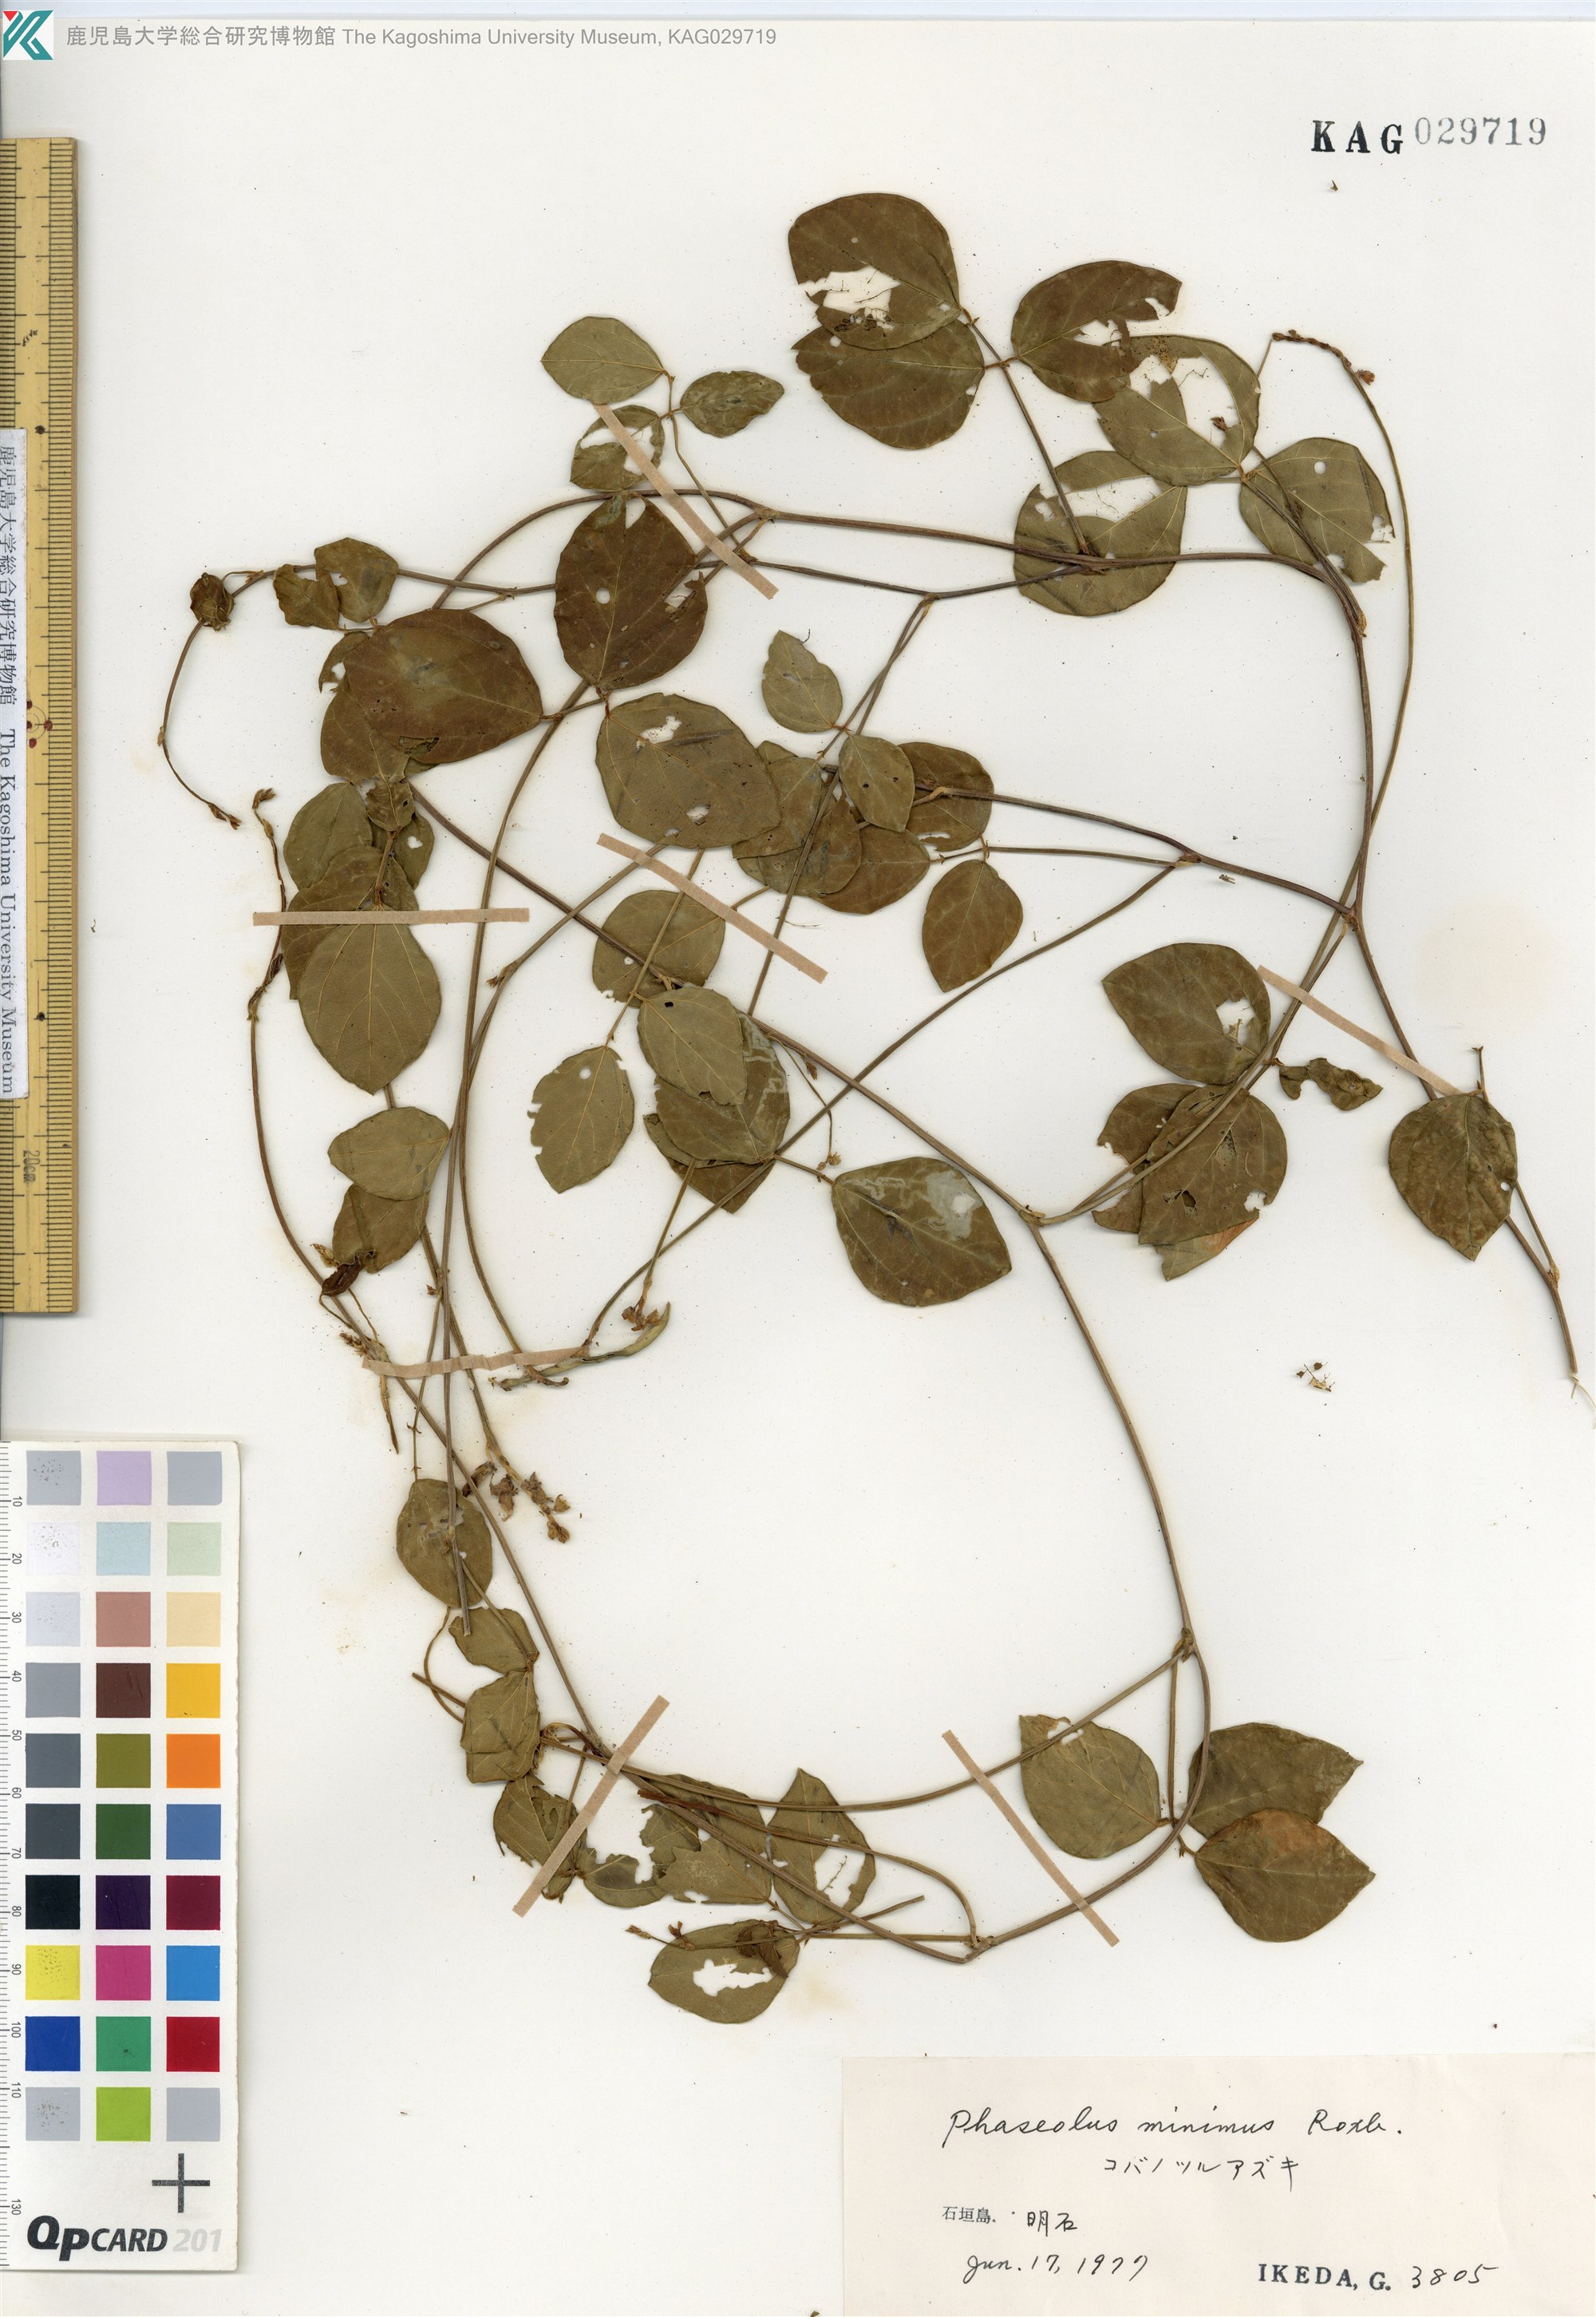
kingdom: Plantae
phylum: Tracheophyta
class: Magnoliopsida
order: Fabales
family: Fabaceae
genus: Vigna
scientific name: Vigna minima
